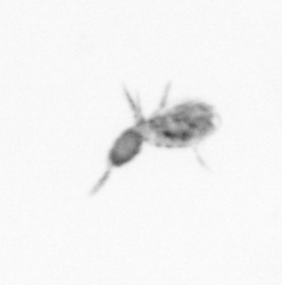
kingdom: Animalia
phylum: Arthropoda
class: Copepoda
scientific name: Copepoda
